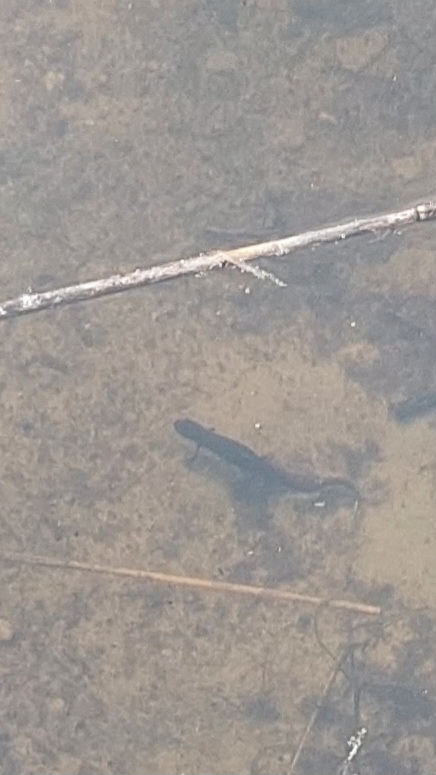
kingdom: Animalia
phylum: Chordata
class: Amphibia
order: Caudata
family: Salamandridae
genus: Lissotriton
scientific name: Lissotriton vulgaris
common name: Lille vandsalamander
